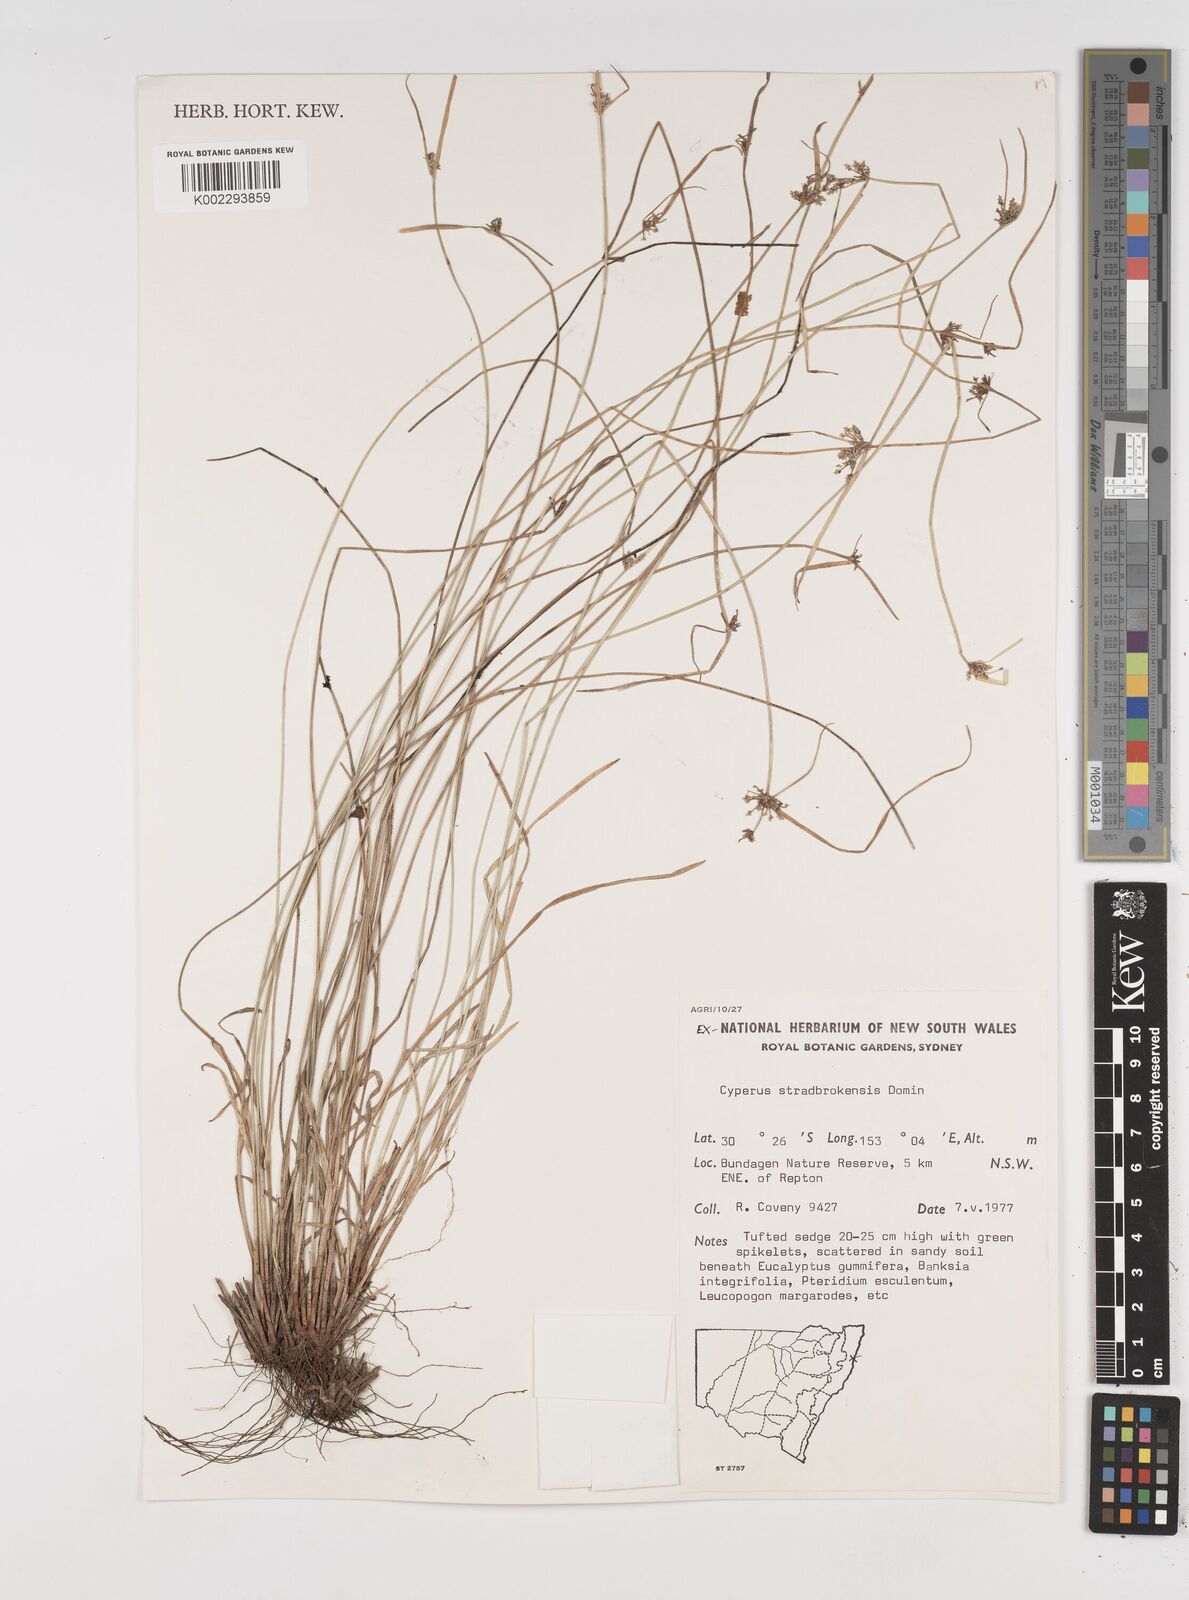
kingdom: Plantae
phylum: Tracheophyta
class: Liliopsida
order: Poales
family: Cyperaceae
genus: Cyperus
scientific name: Cyperus stradbrokensis
